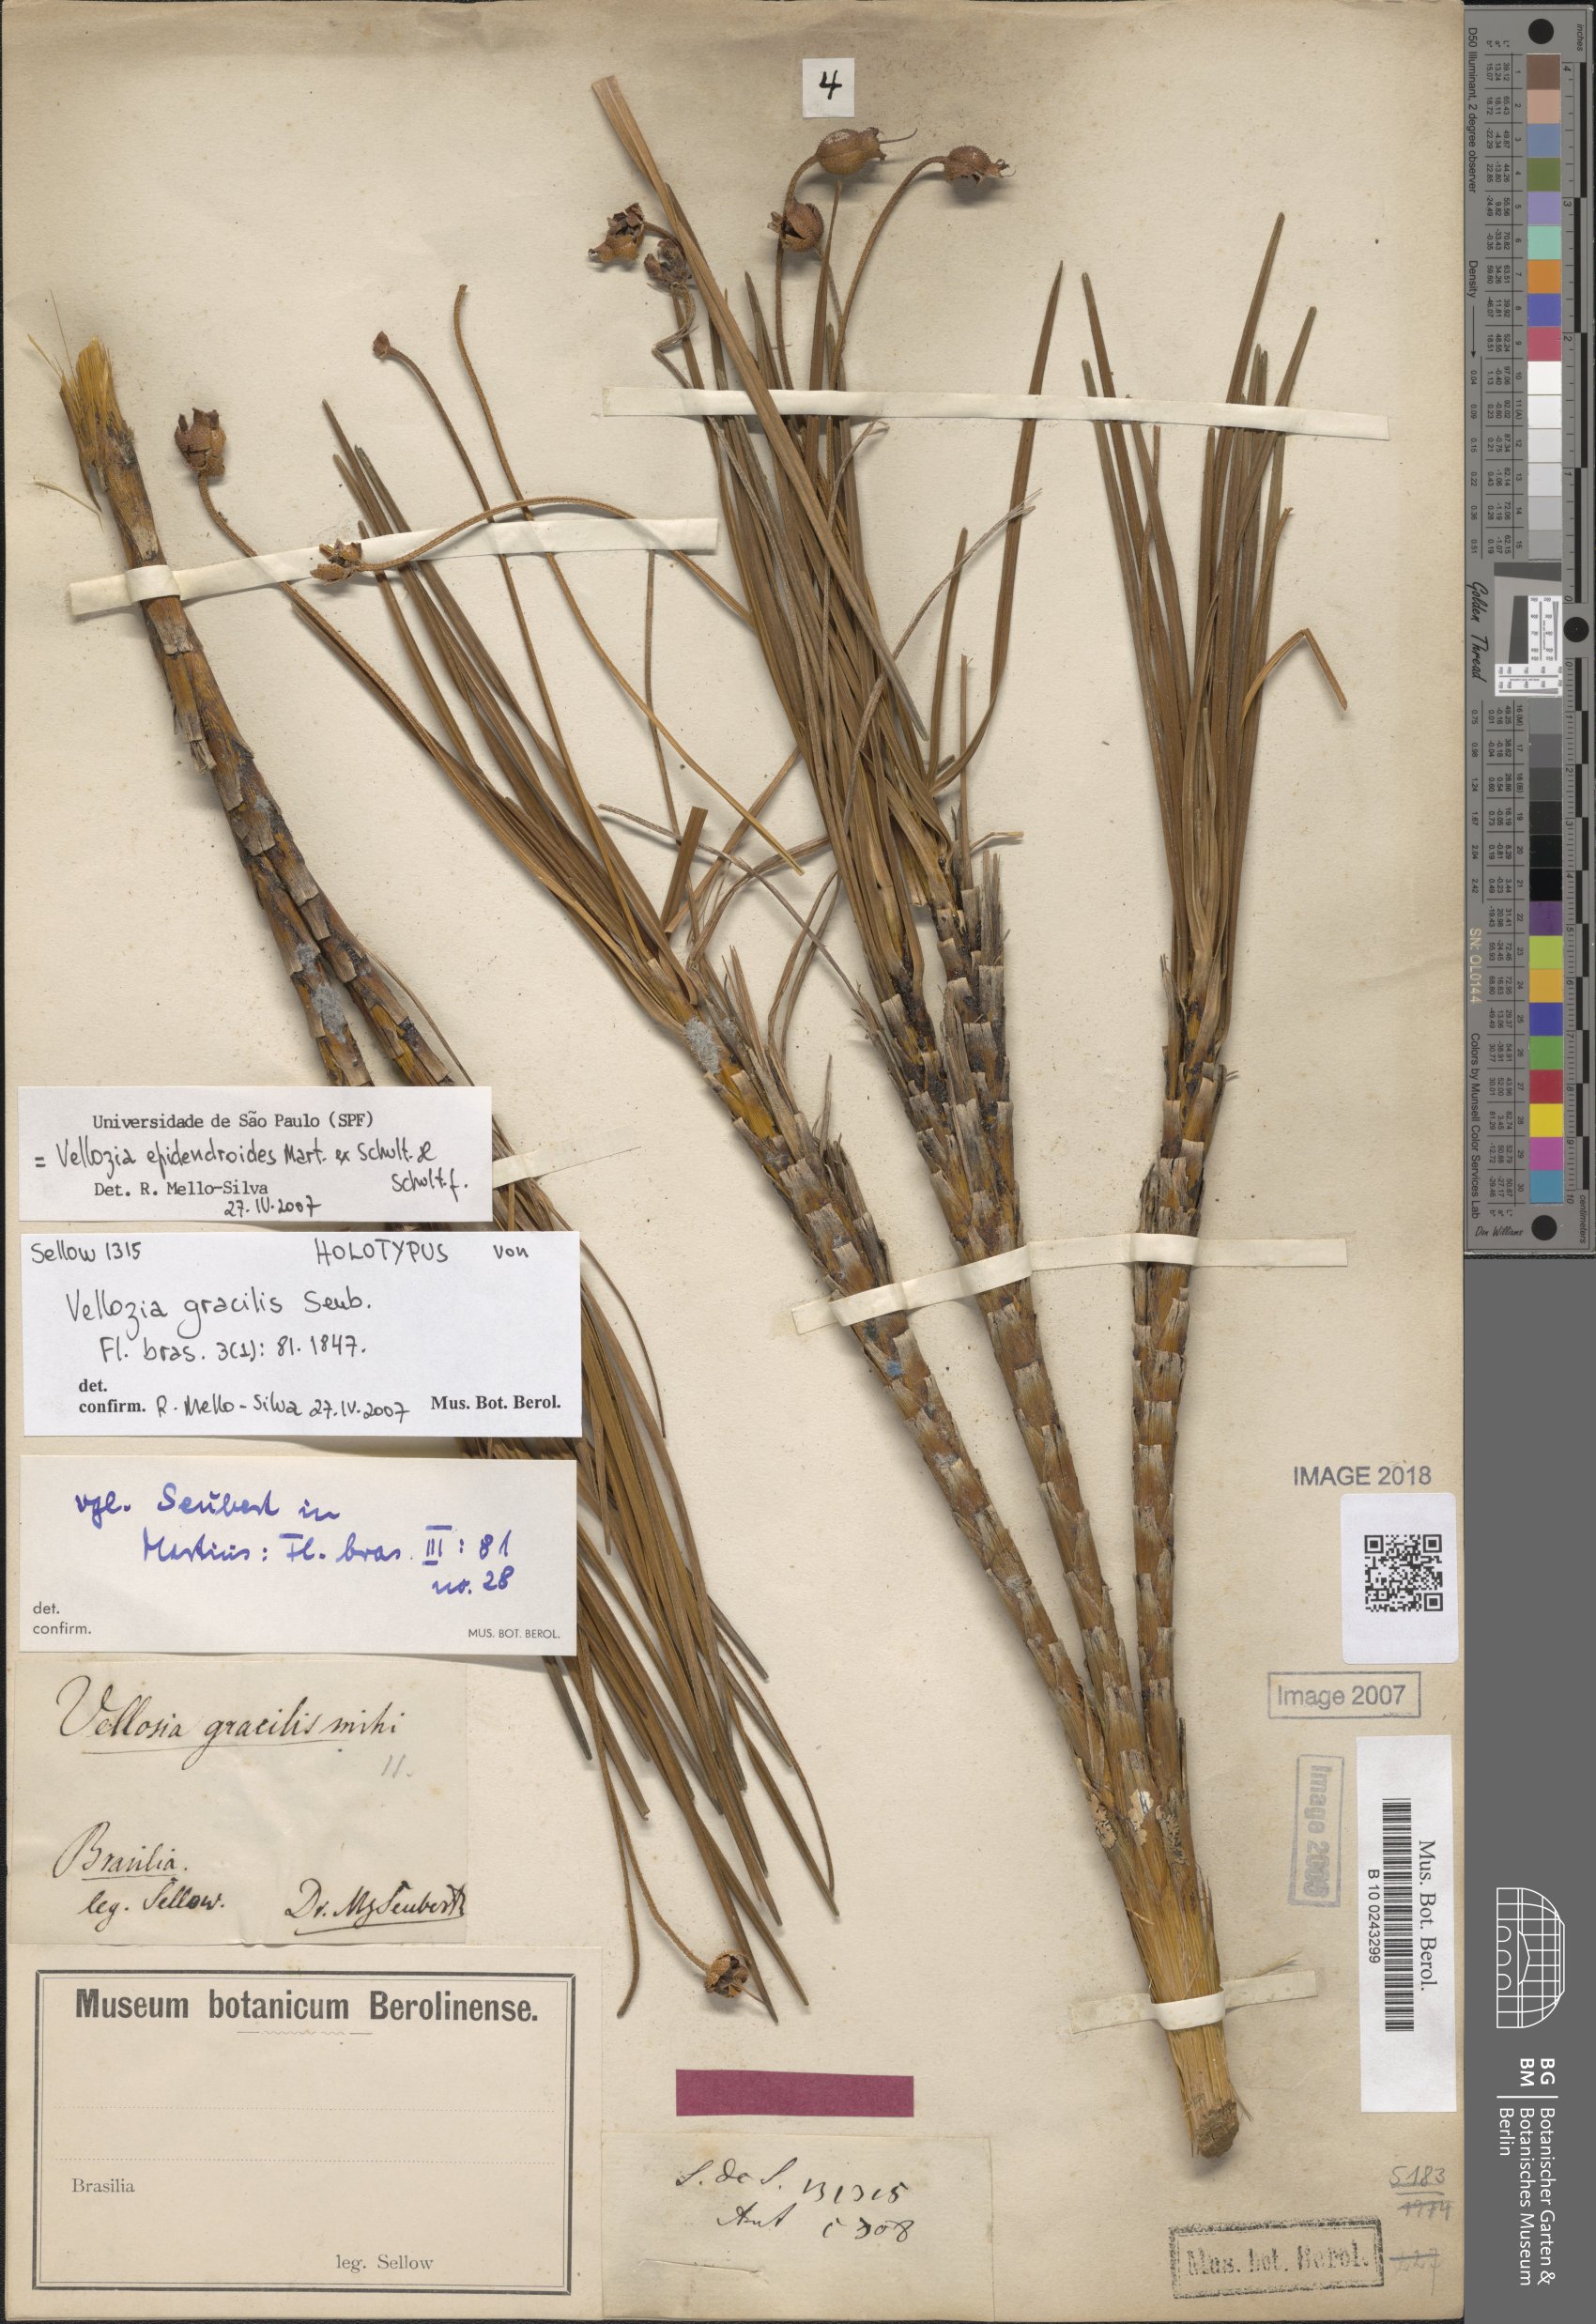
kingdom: Plantae
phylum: Tracheophyta
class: Liliopsida
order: Pandanales
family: Velloziaceae
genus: Vellozia
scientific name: Vellozia epidendroides
